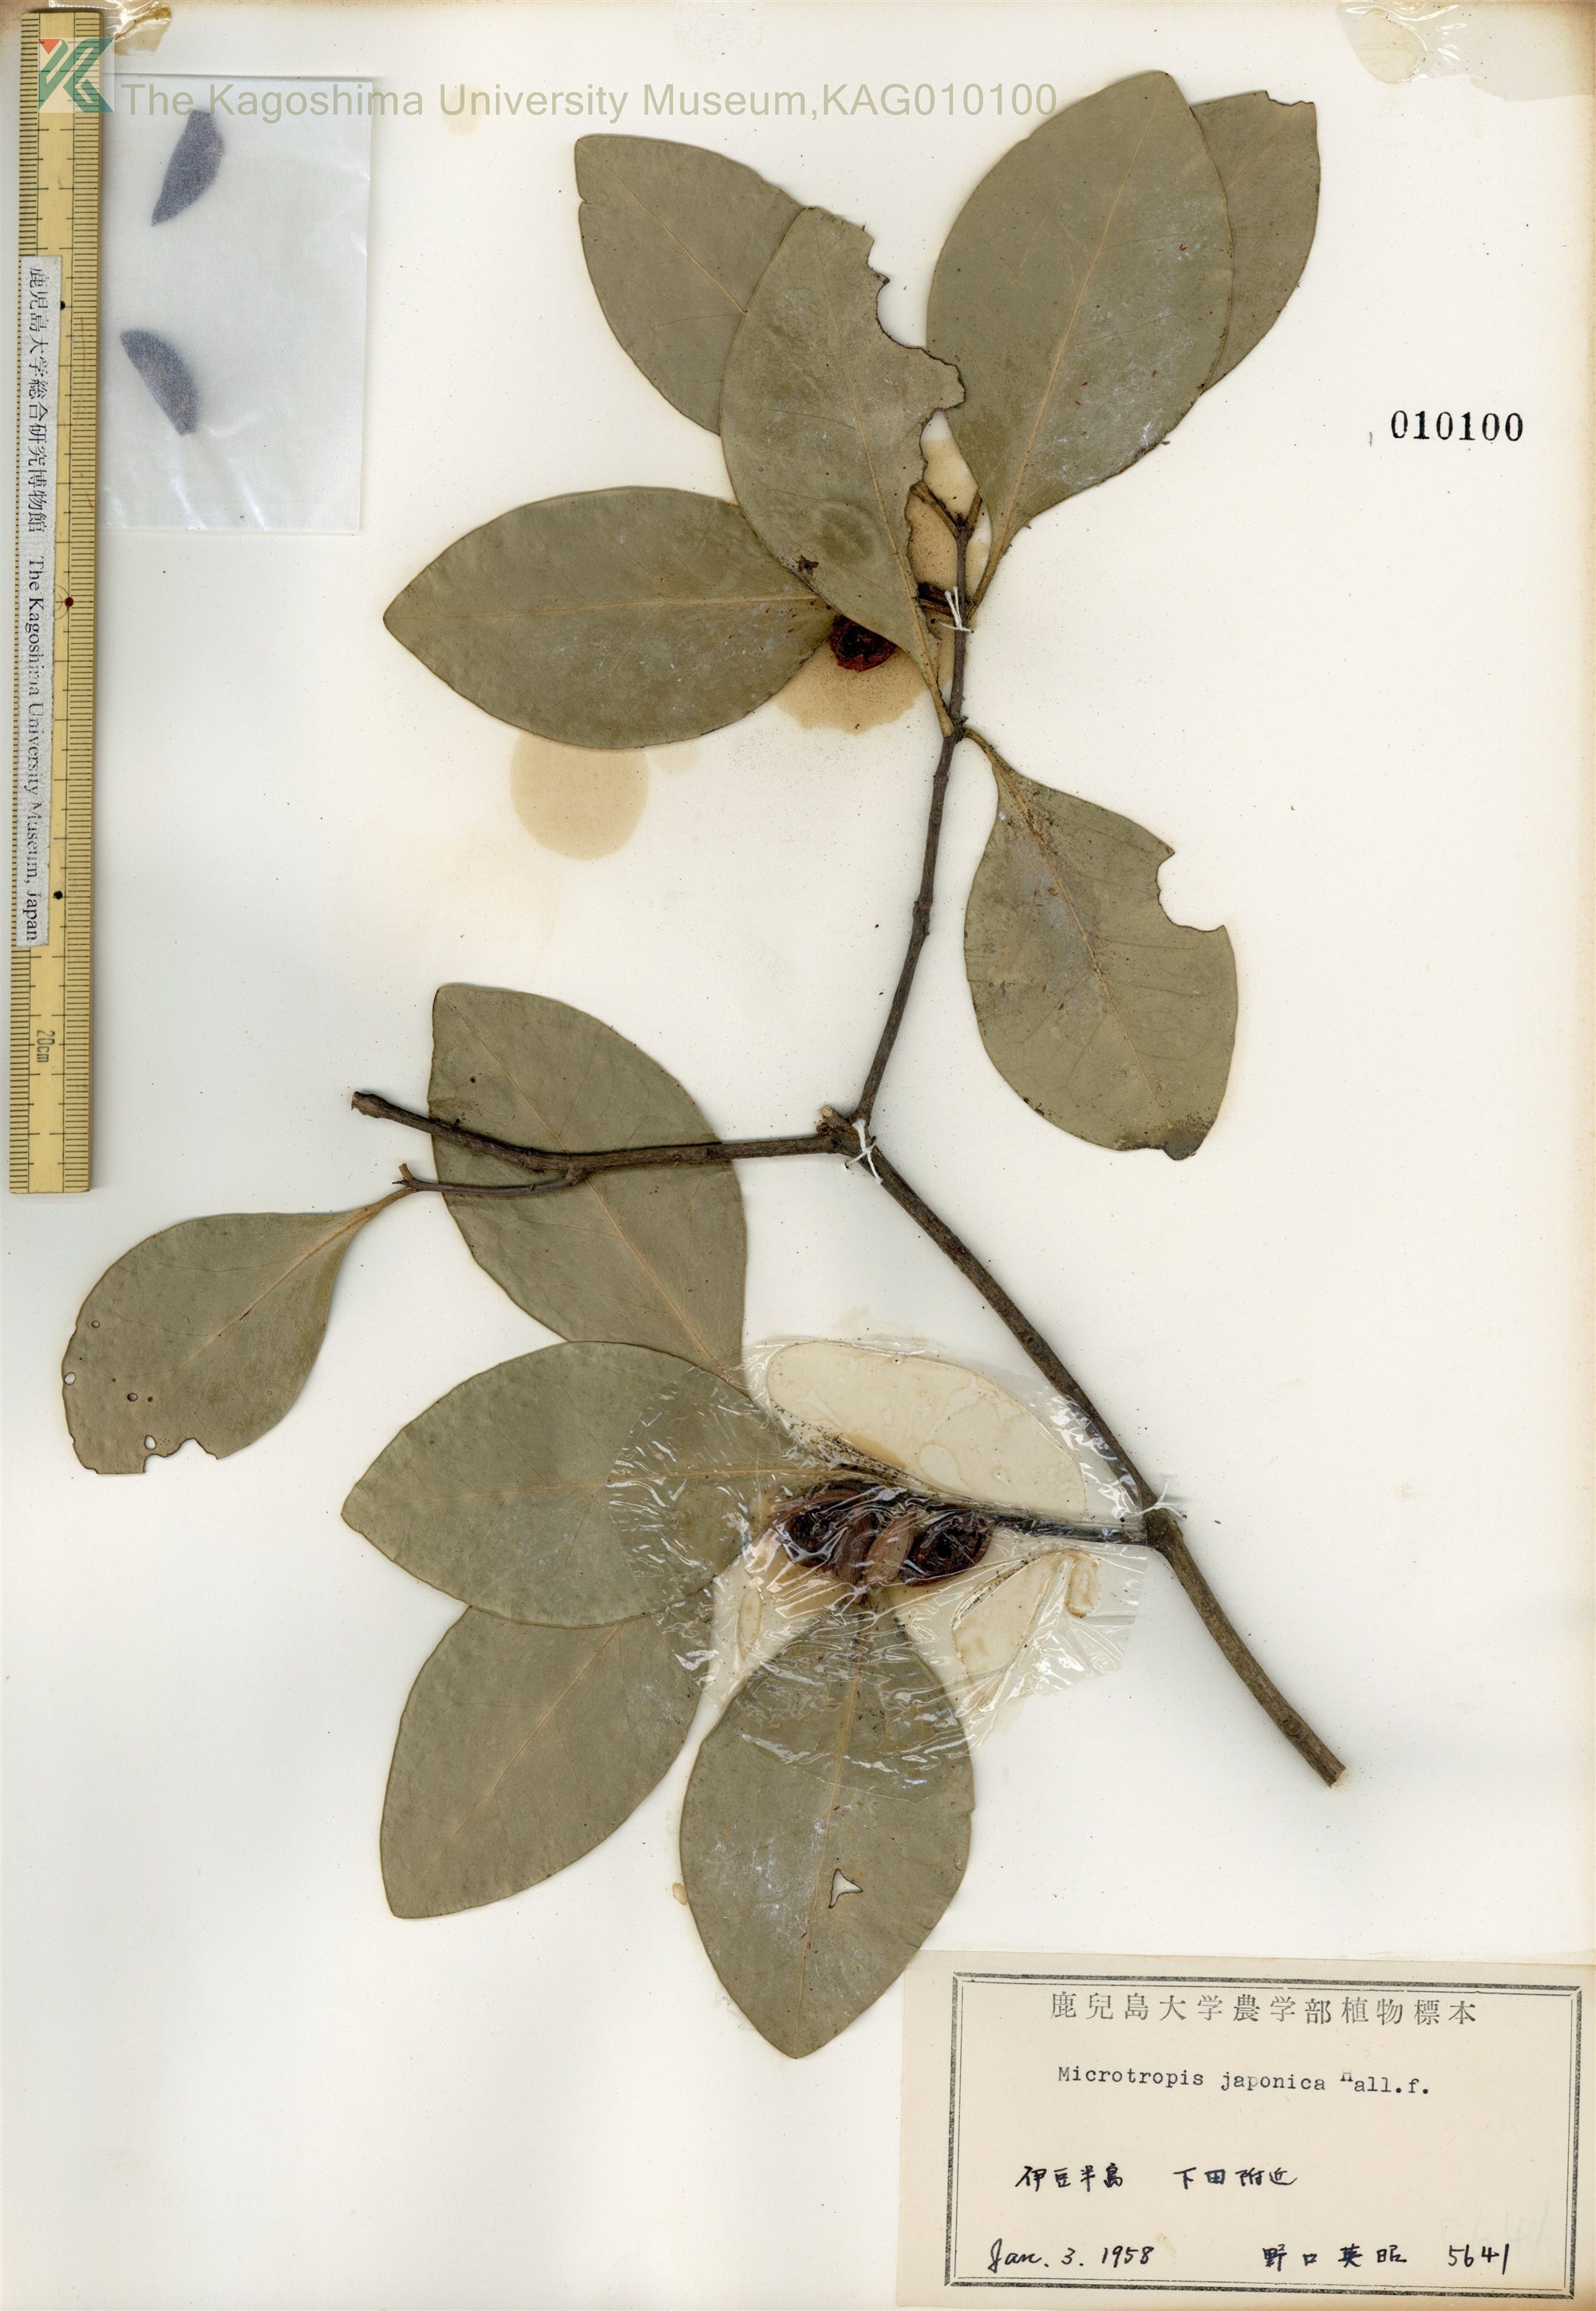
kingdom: Plantae
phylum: Tracheophyta
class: Magnoliopsida
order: Celastrales
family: Celastraceae
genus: Microtropis
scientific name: Microtropis japonica
